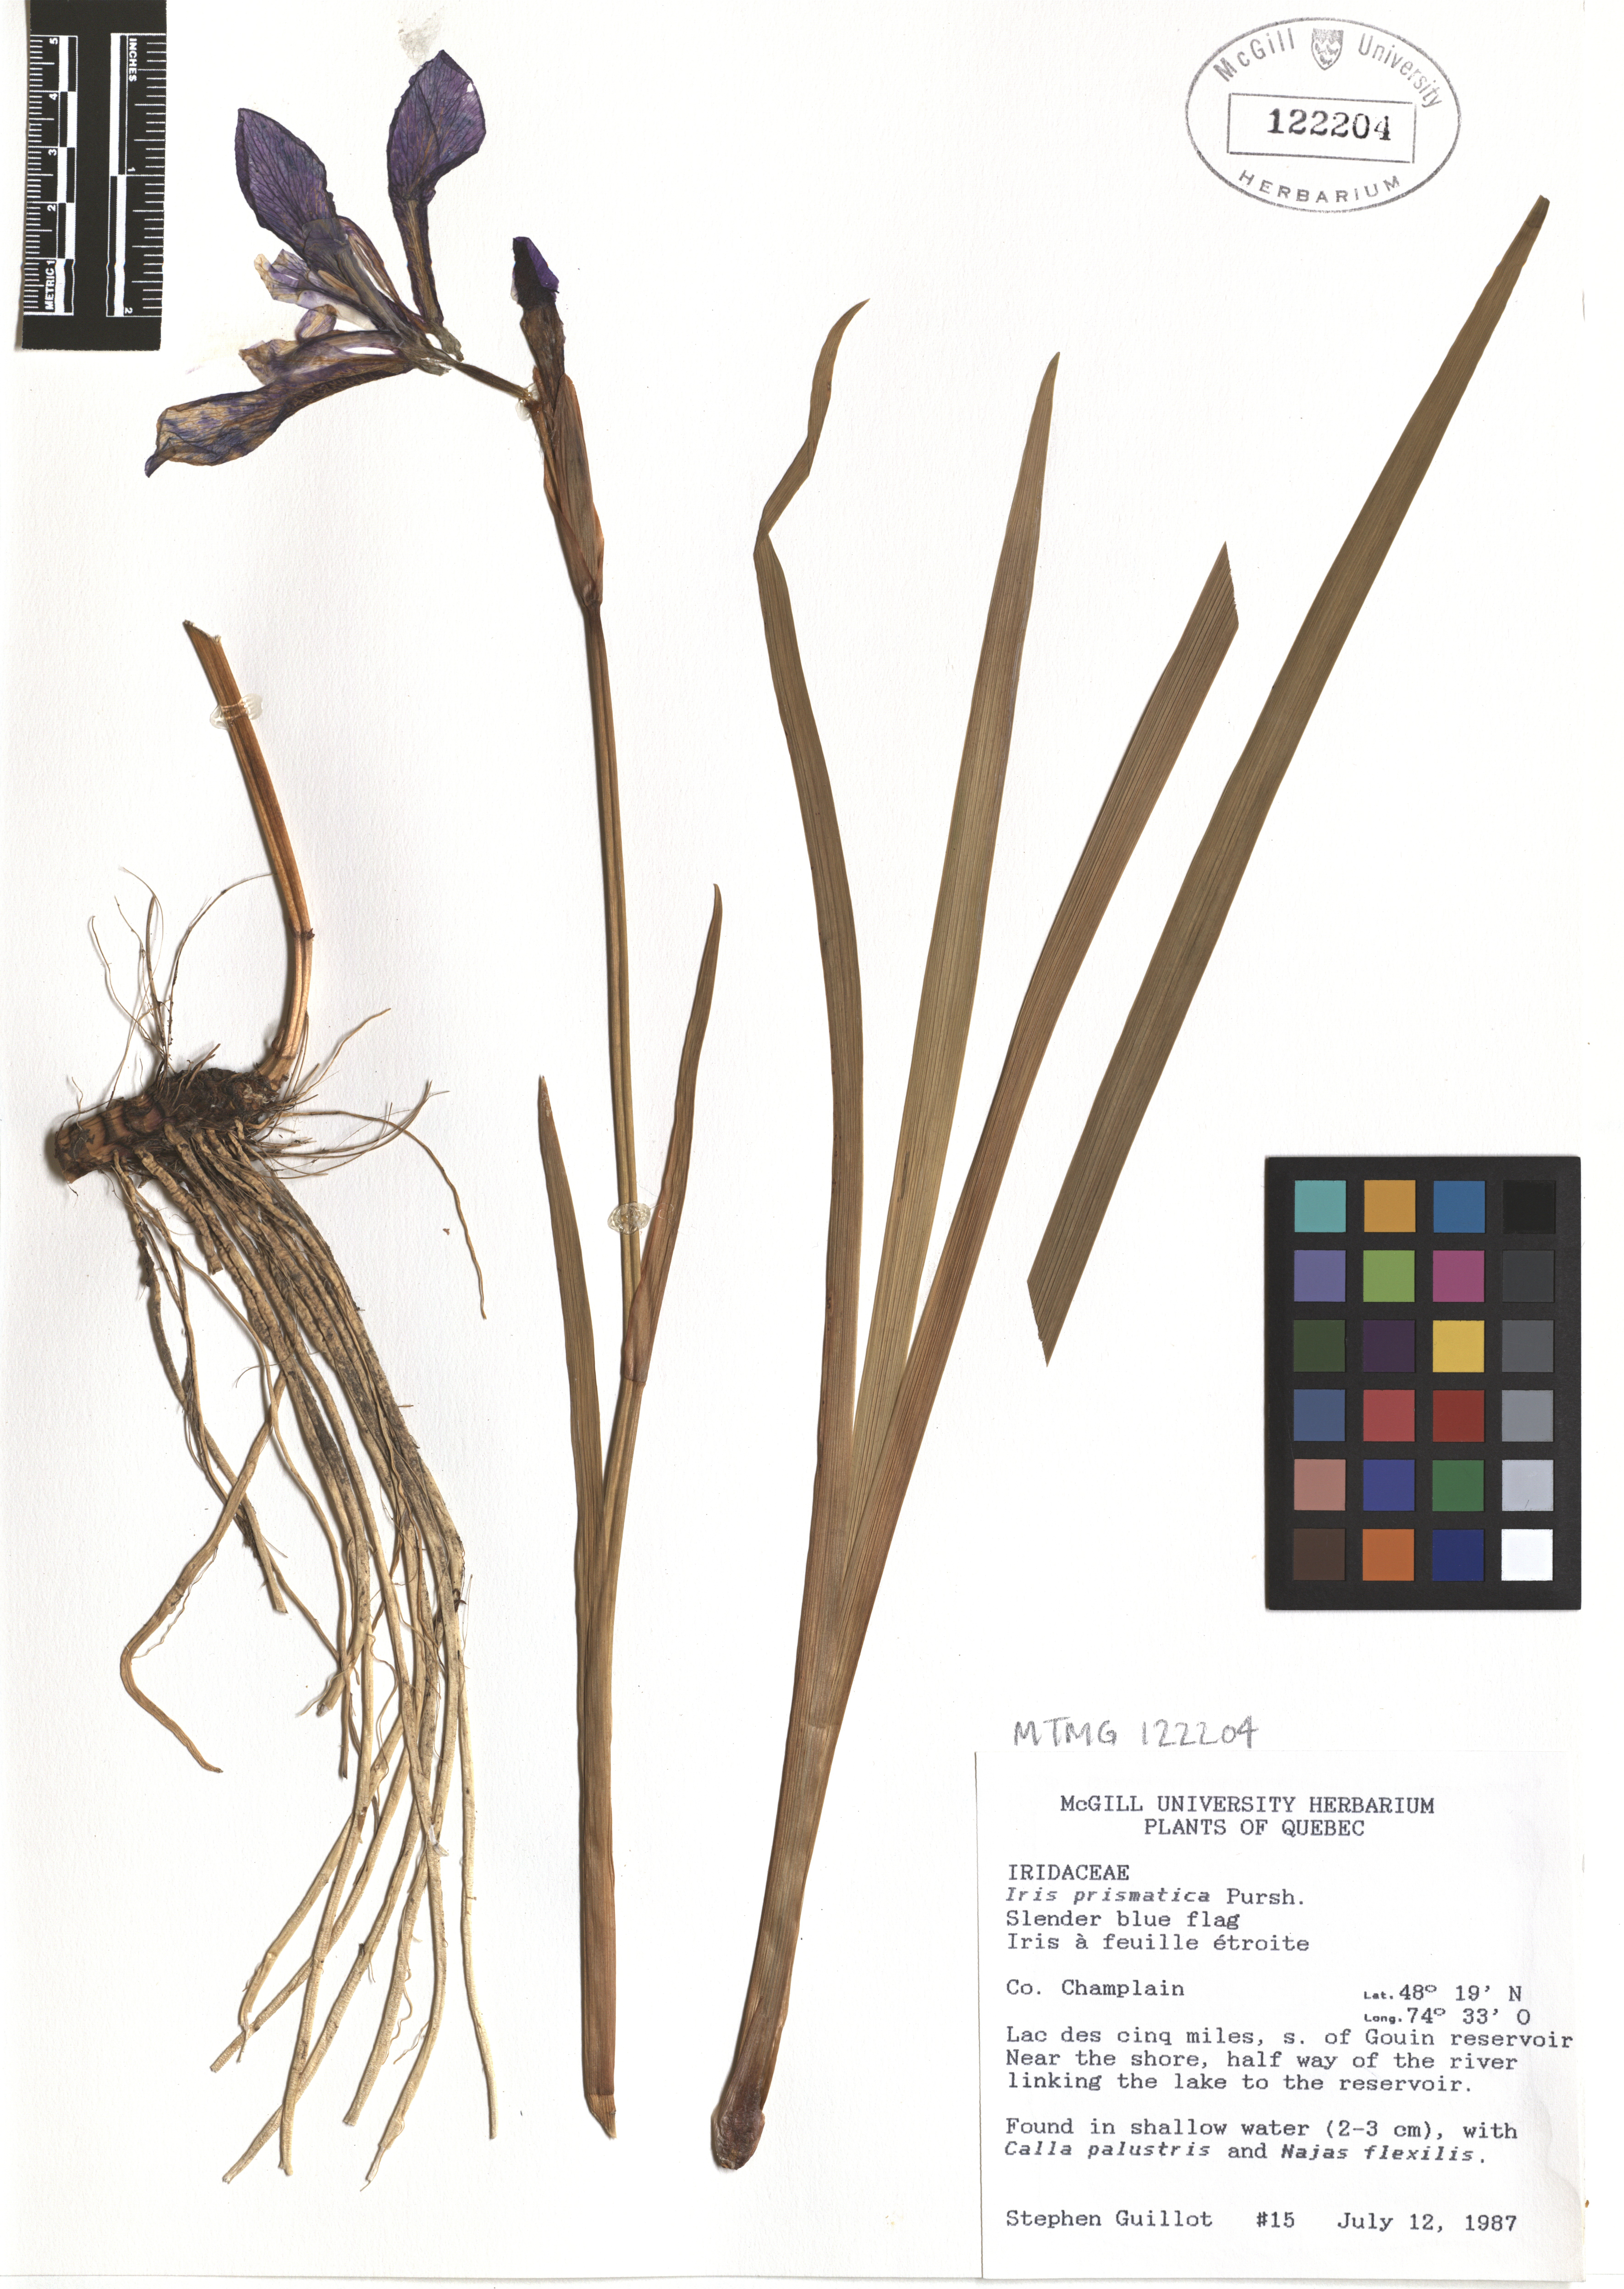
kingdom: Plantae
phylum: Tracheophyta
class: Liliopsida
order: Asparagales
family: Iridaceae
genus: Iris
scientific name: Iris prismatica
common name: Slender blue flag
